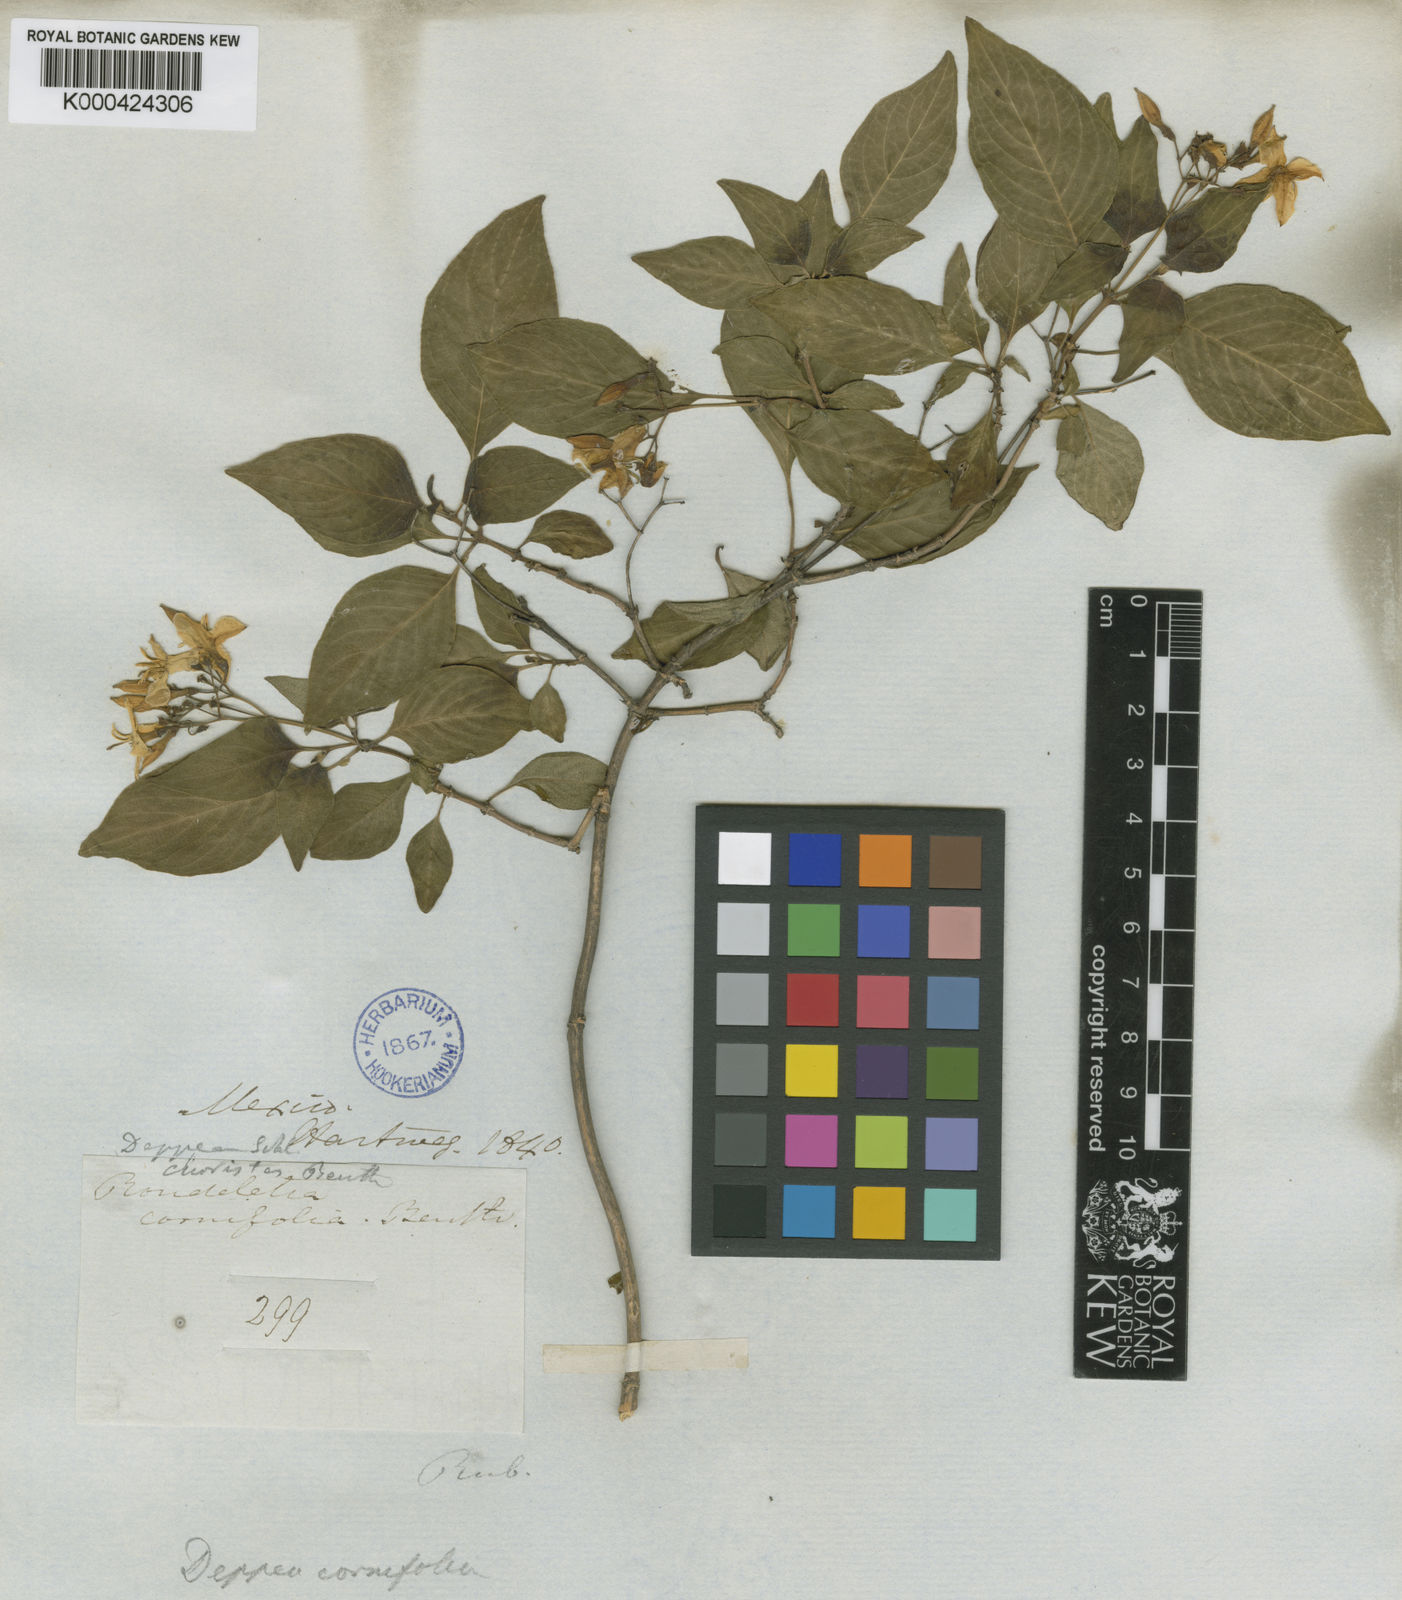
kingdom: Plantae
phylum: Tracheophyta
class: Magnoliopsida
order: Gentianales
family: Rubiaceae
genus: Deppea
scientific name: Deppea cornifolia
